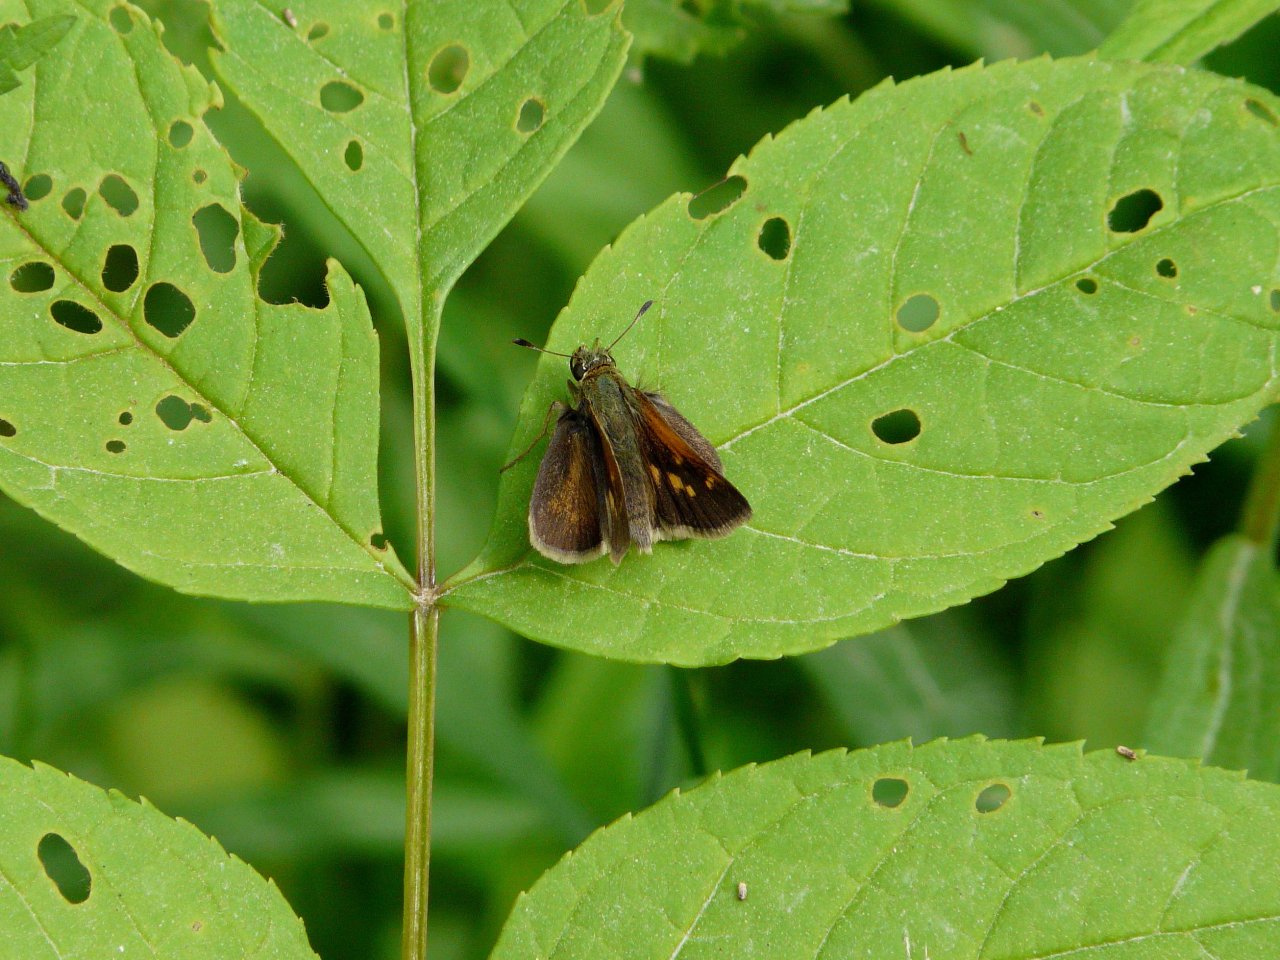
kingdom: Animalia
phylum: Arthropoda
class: Insecta
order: Lepidoptera
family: Hesperiidae
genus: Polites
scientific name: Polites themistocles
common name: Tawny-edged Skipper
